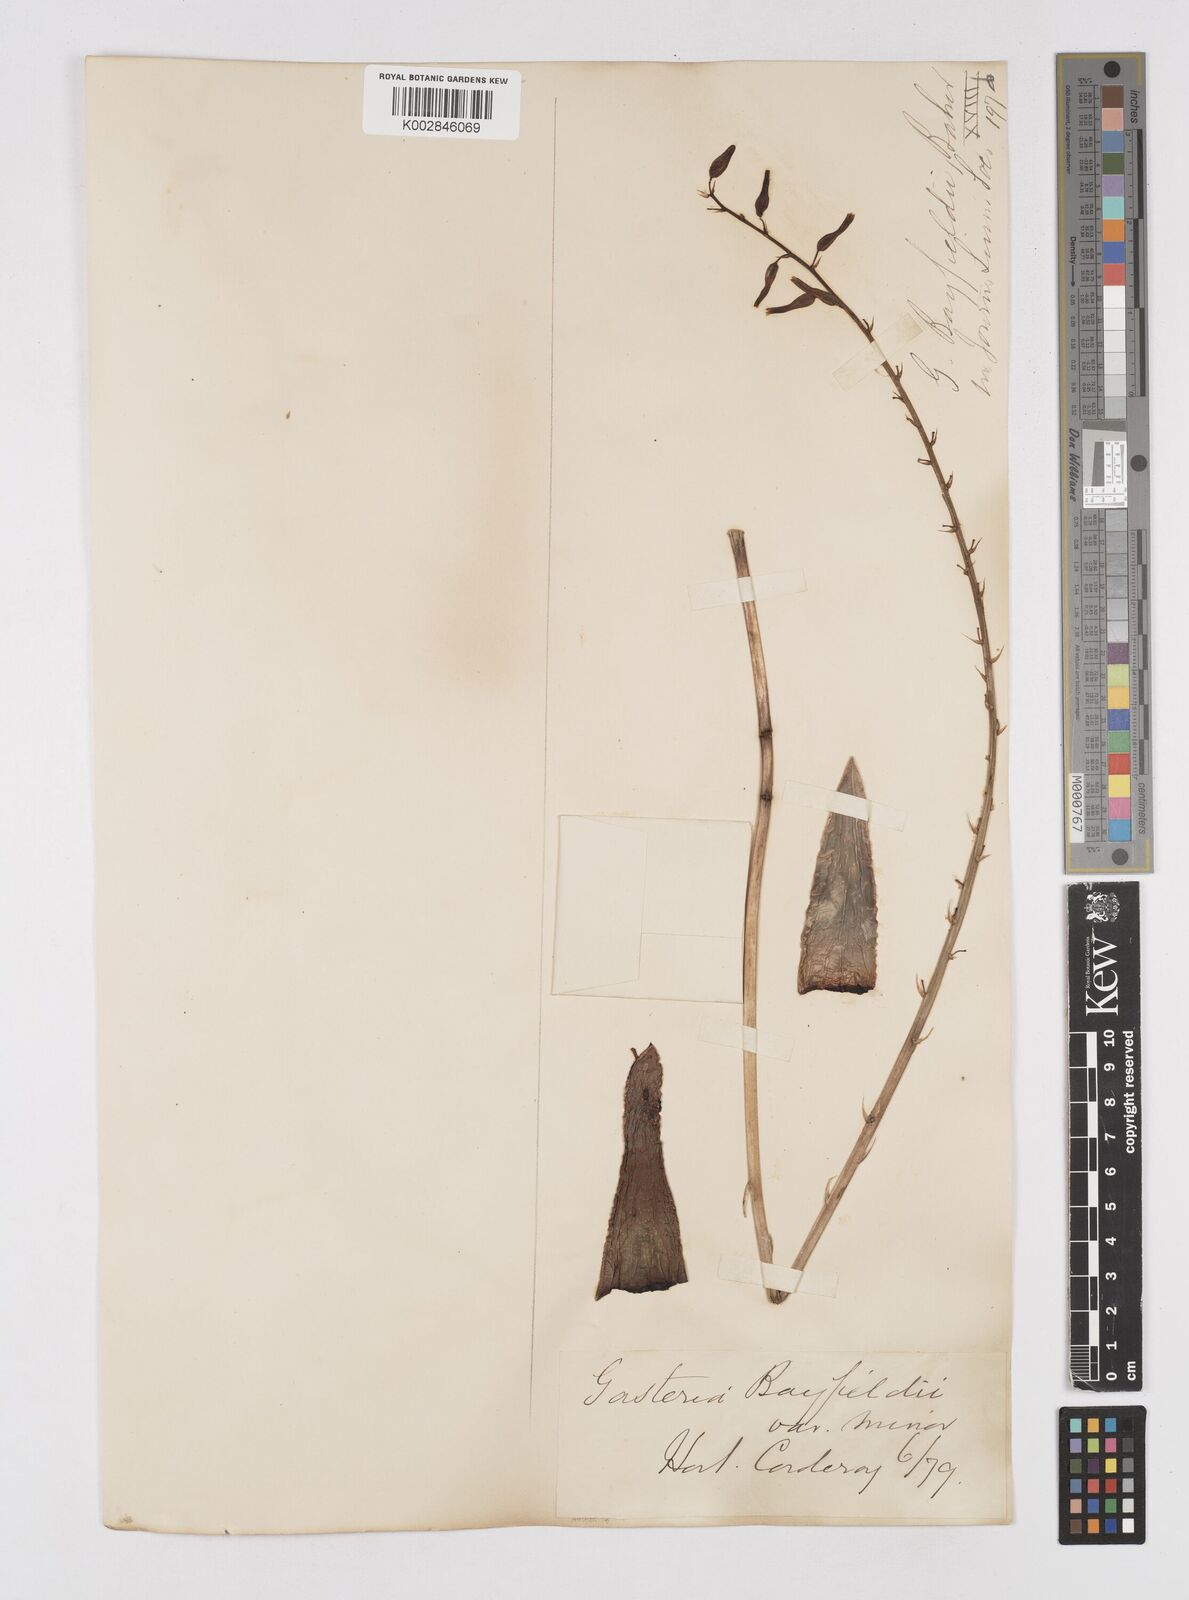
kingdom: Plantae
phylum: Tracheophyta
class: Liliopsida
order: Asparagales
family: Asphodelaceae
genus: Gasterhaworthia
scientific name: Gasterhaworthia bayfieldii
